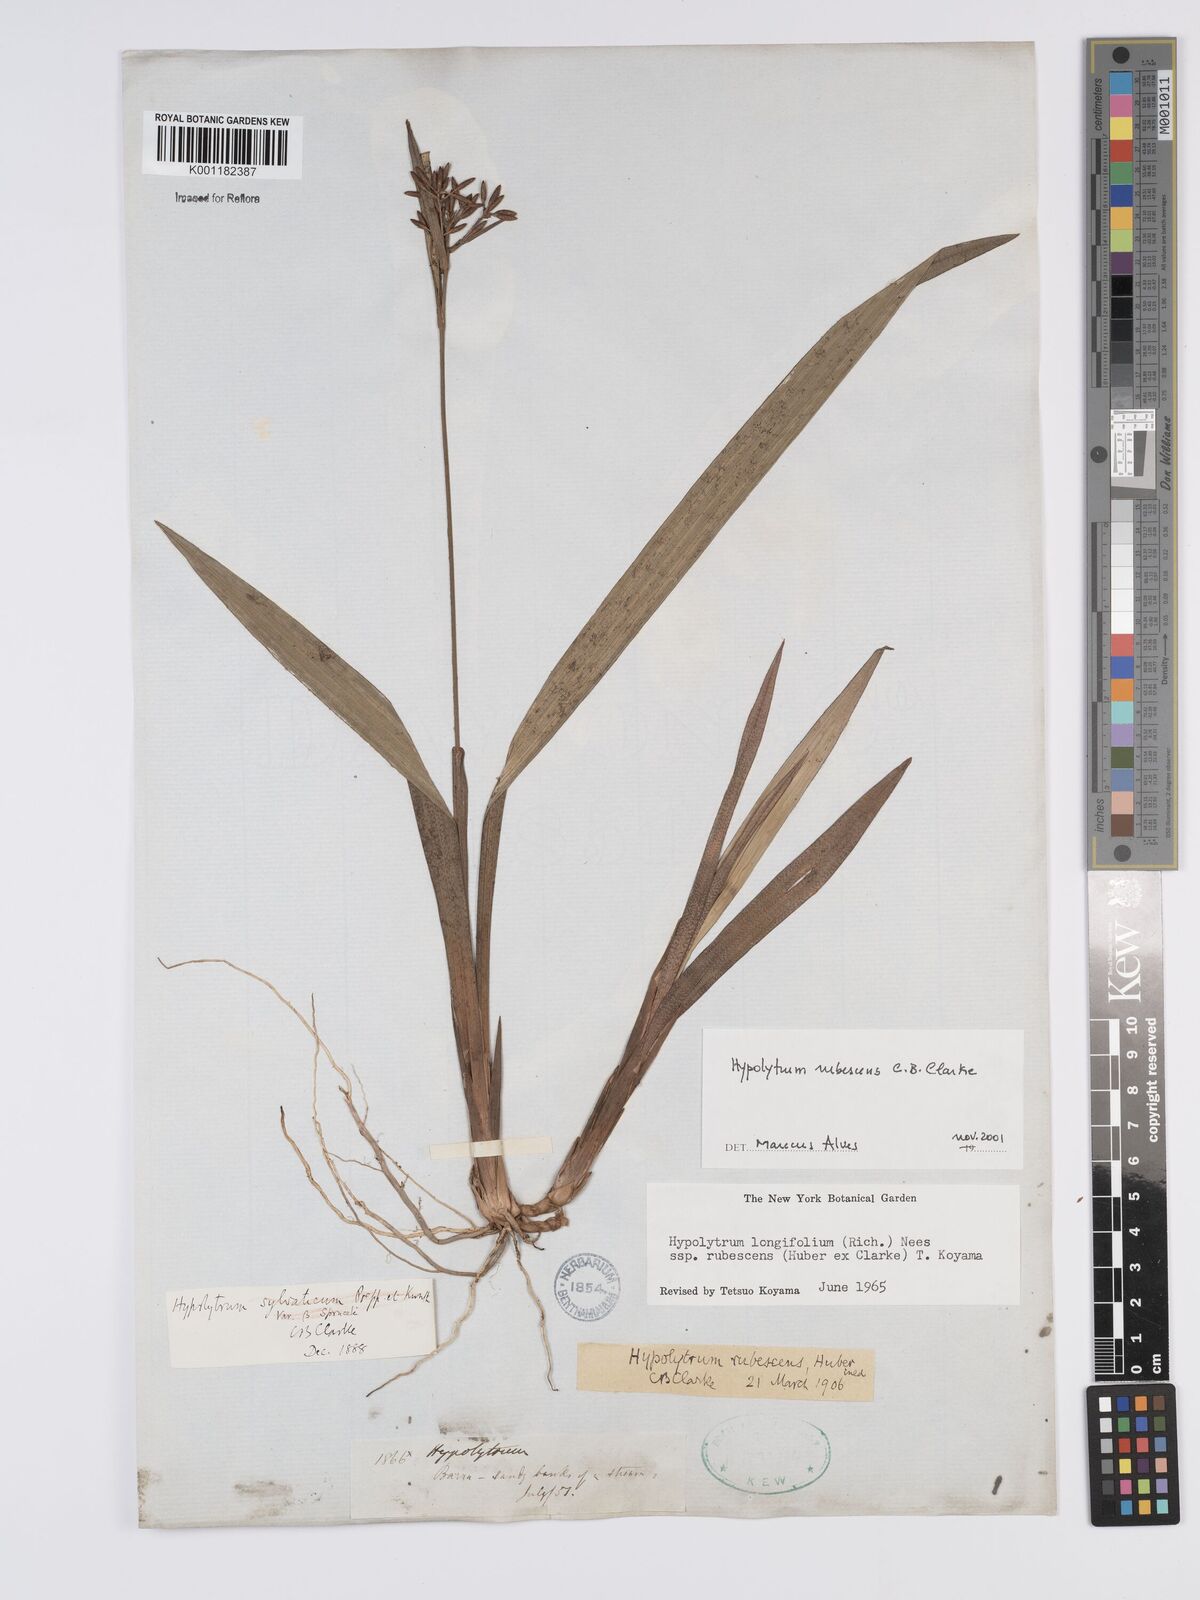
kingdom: Plantae
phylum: Tracheophyta
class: Liliopsida
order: Poales
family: Cyperaceae
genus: Hypolytrum
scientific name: Hypolytrum longifolium
